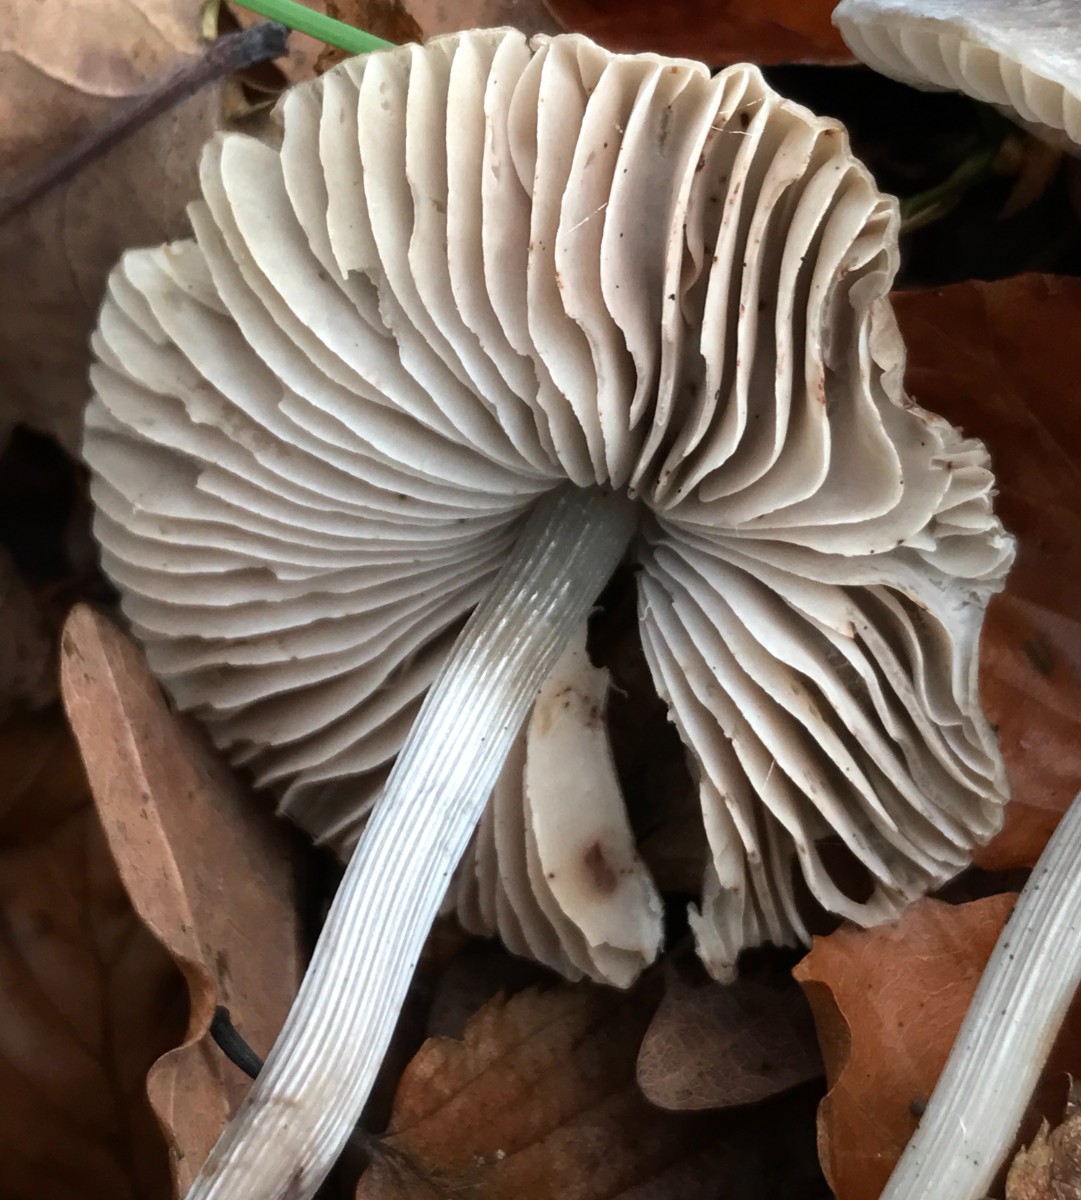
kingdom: Fungi
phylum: Basidiomycota
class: Agaricomycetes
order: Agaricales
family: Mycenaceae
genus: Mycena
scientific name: Mycena polygramma
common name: mangestribet huesvamp
